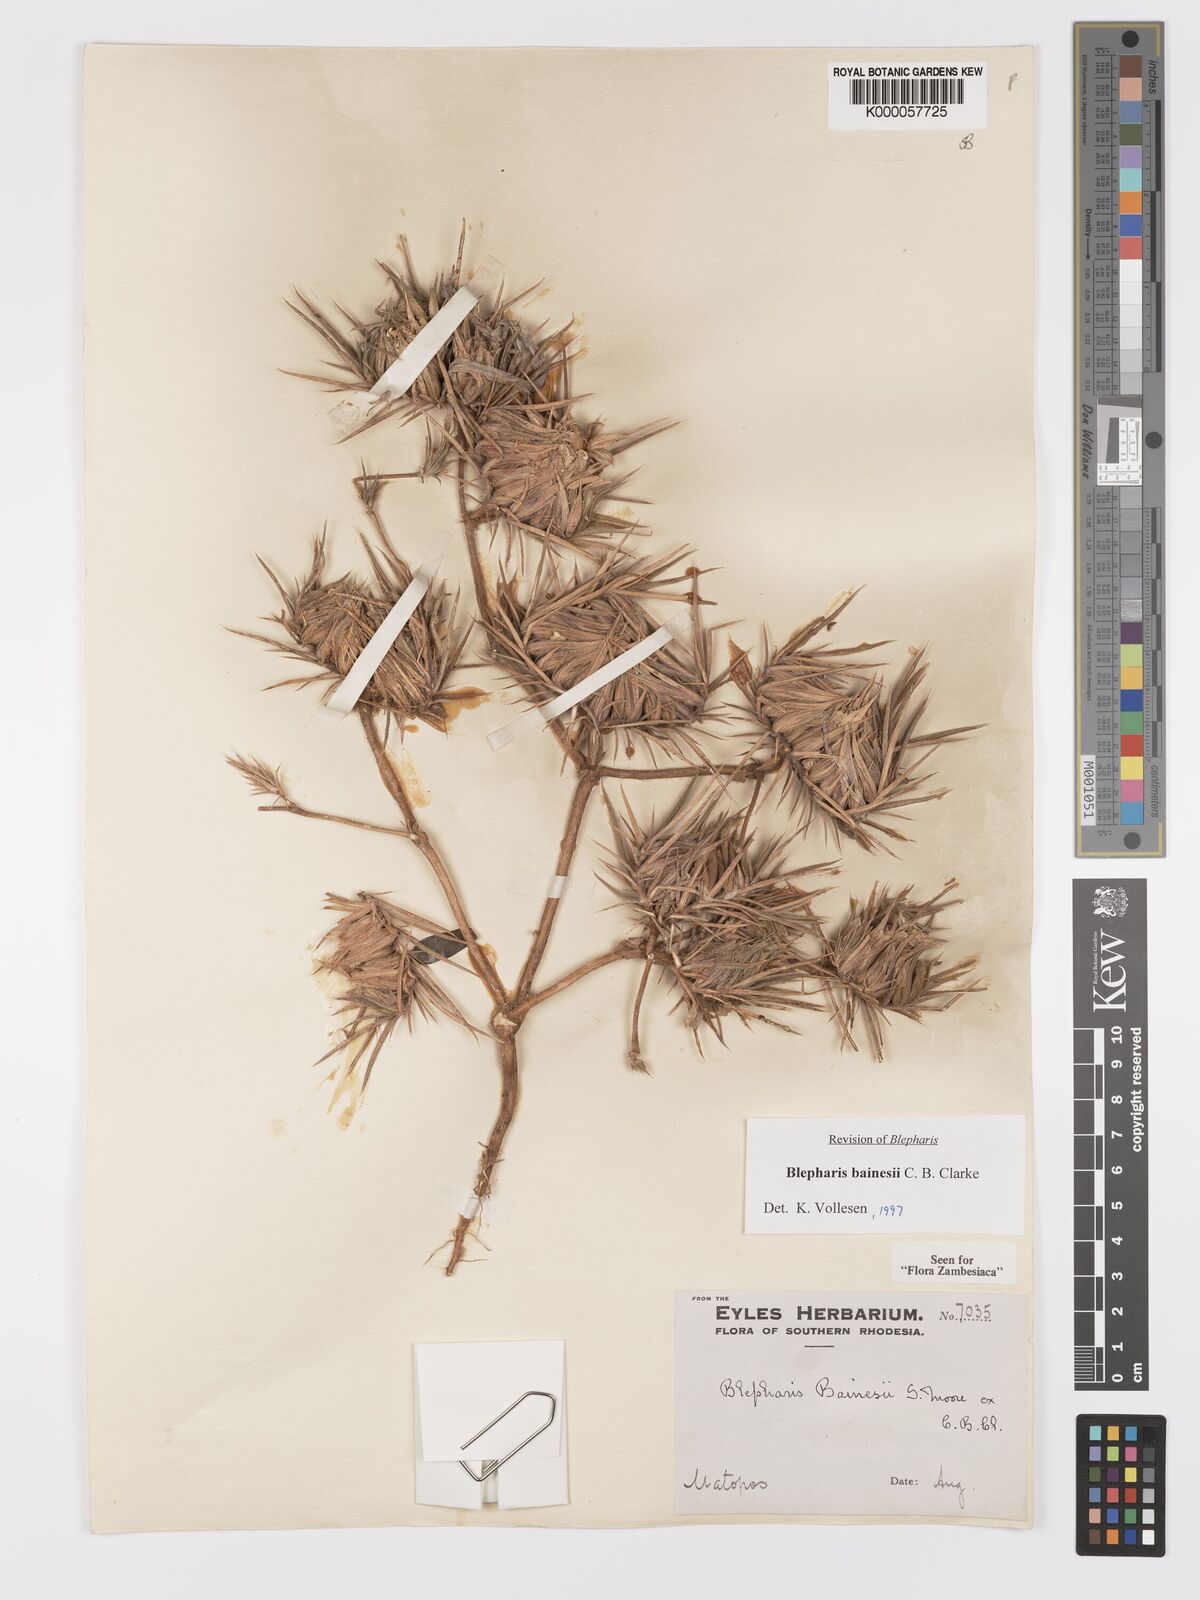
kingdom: Plantae
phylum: Tracheophyta
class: Magnoliopsida
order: Lamiales
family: Acanthaceae
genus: Blepharis
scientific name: Blepharis bainesii
